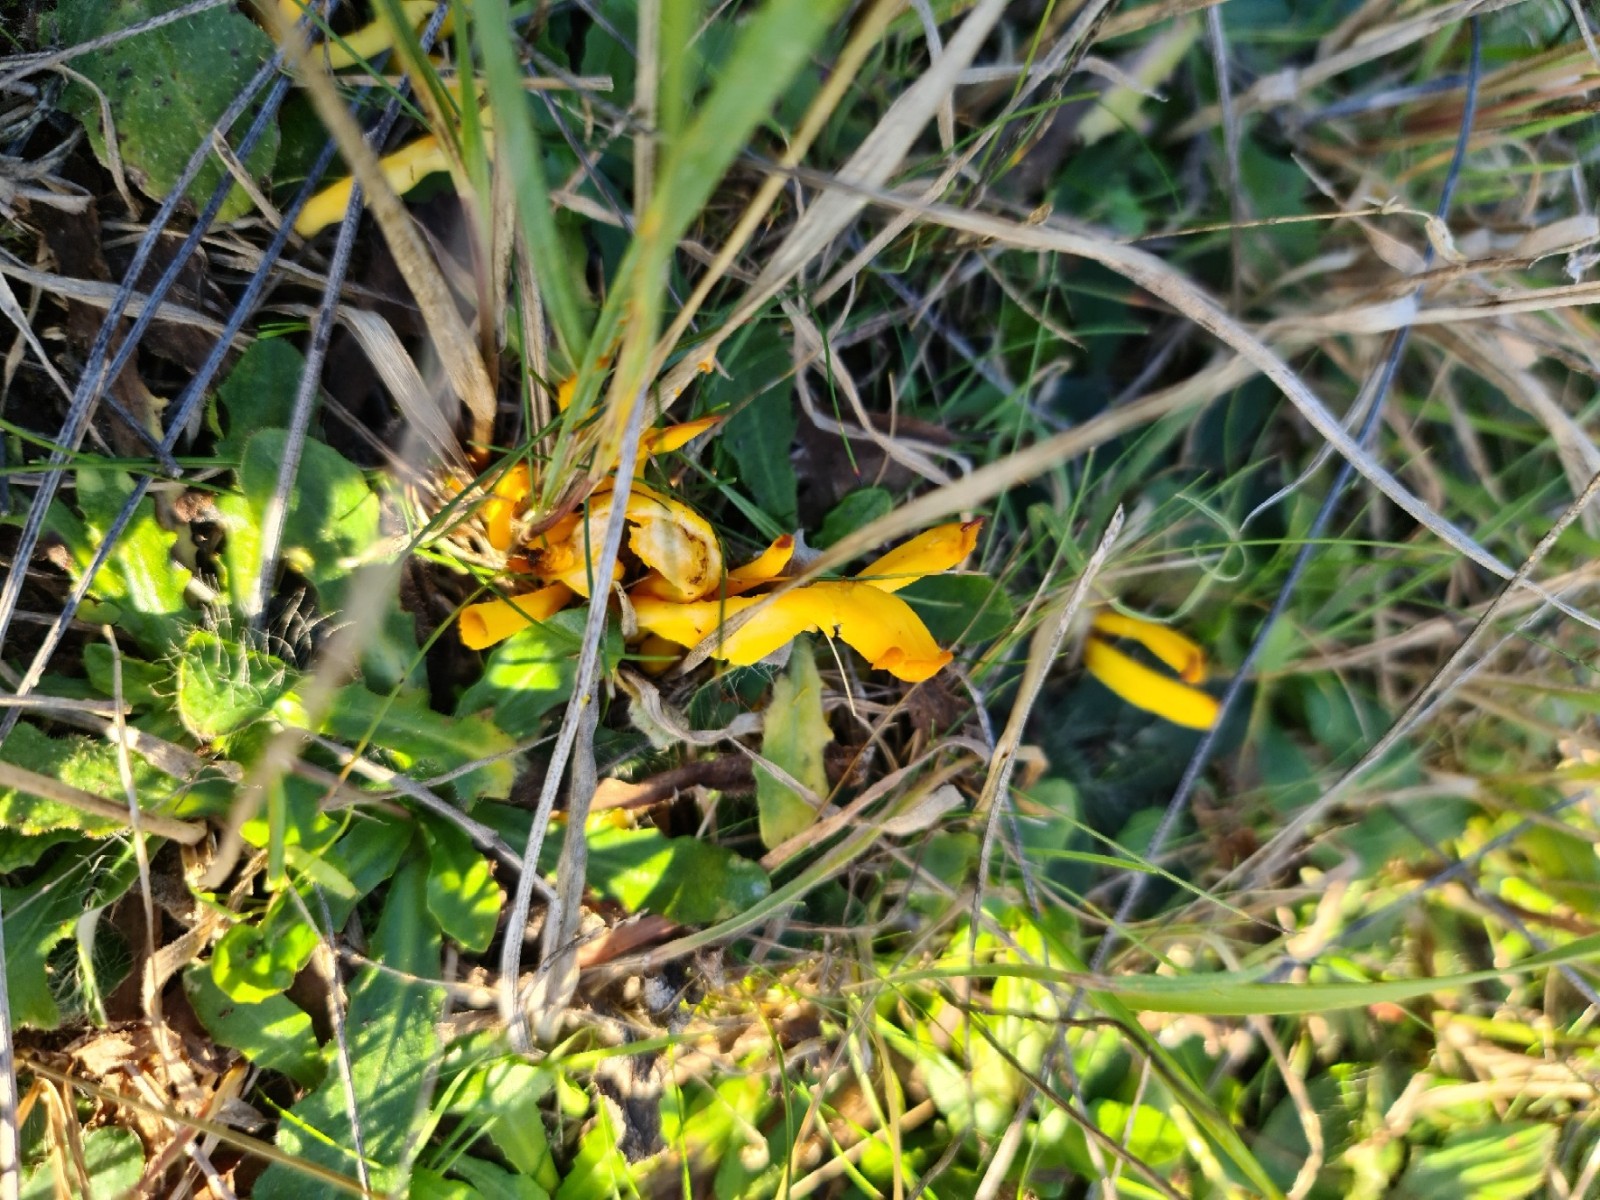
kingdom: Fungi
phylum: Basidiomycota
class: Agaricomycetes
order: Agaricales
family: Clavariaceae
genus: Clavulinopsis
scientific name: Clavulinopsis
